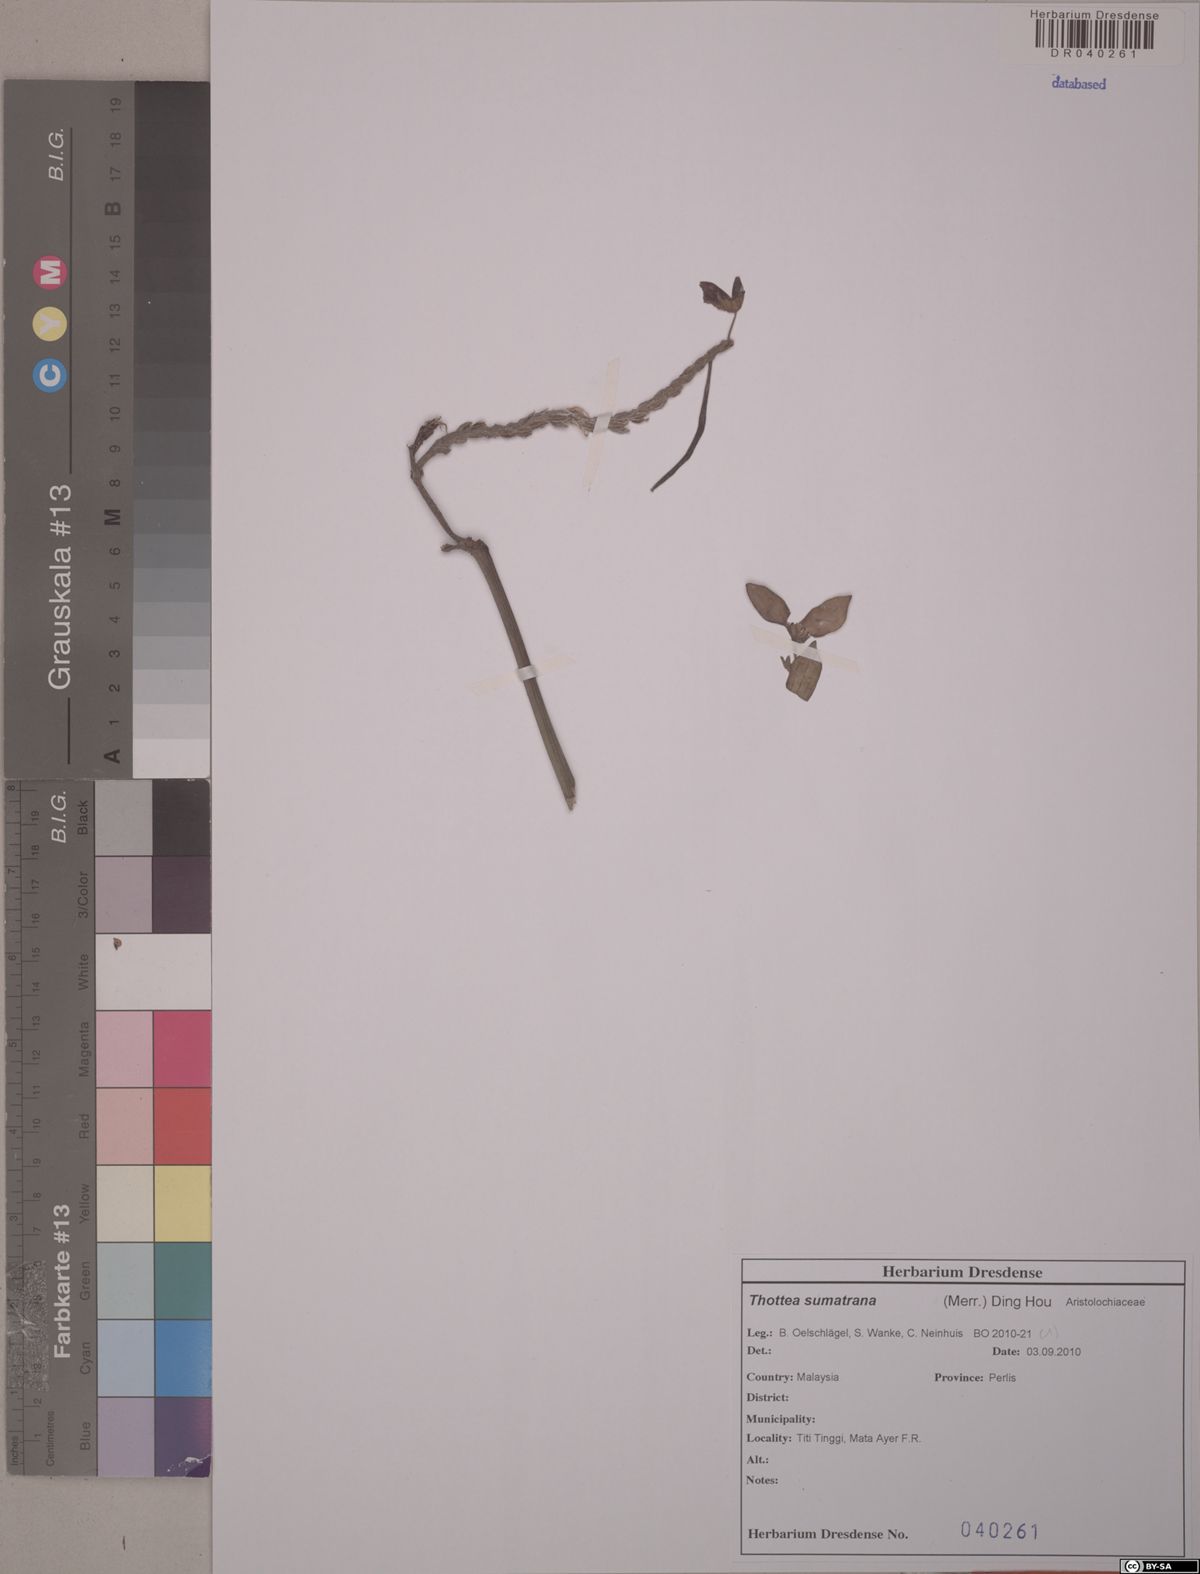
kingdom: Plantae
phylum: Tracheophyta
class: Magnoliopsida
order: Piperales
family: Aristolochiaceae
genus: Thottea
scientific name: Thottea sumatrana
